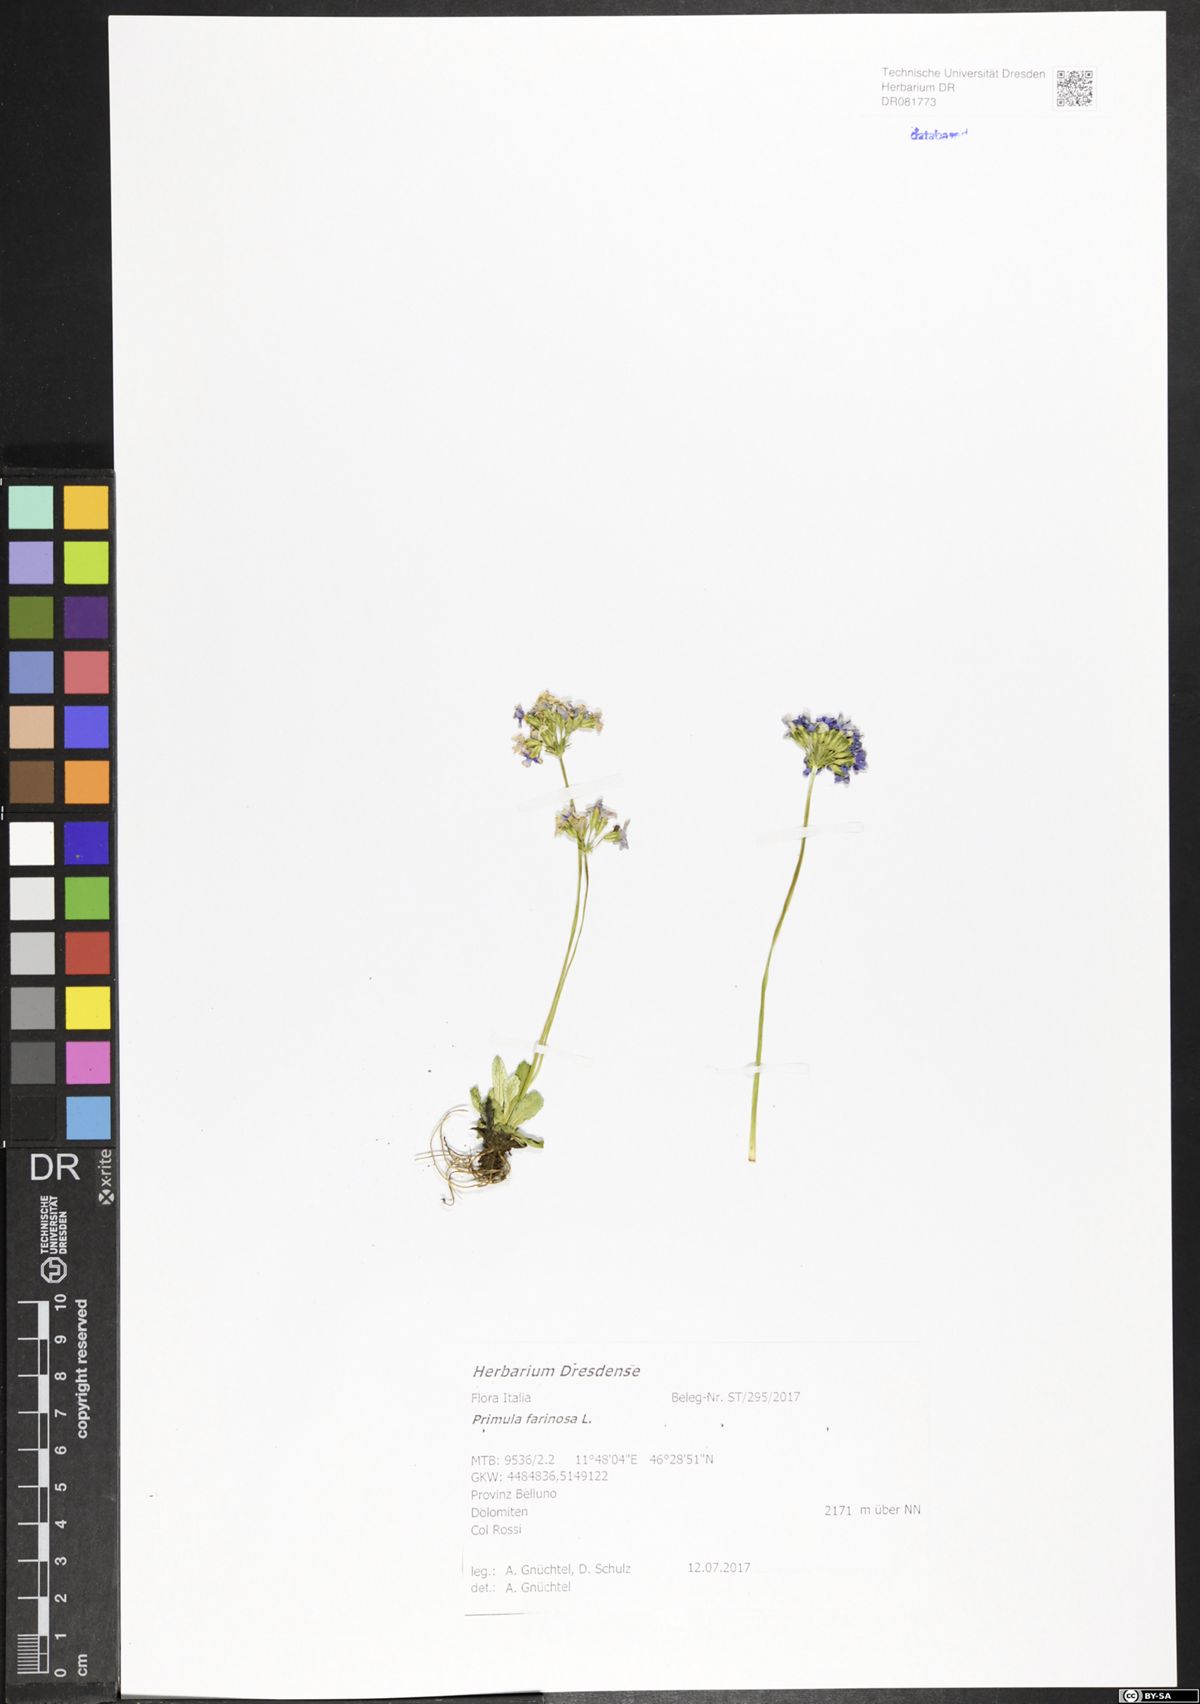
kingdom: Plantae
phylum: Tracheophyta
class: Magnoliopsida
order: Ericales
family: Primulaceae
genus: Primula
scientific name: Primula farinosa
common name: Bird's-eye primrose
